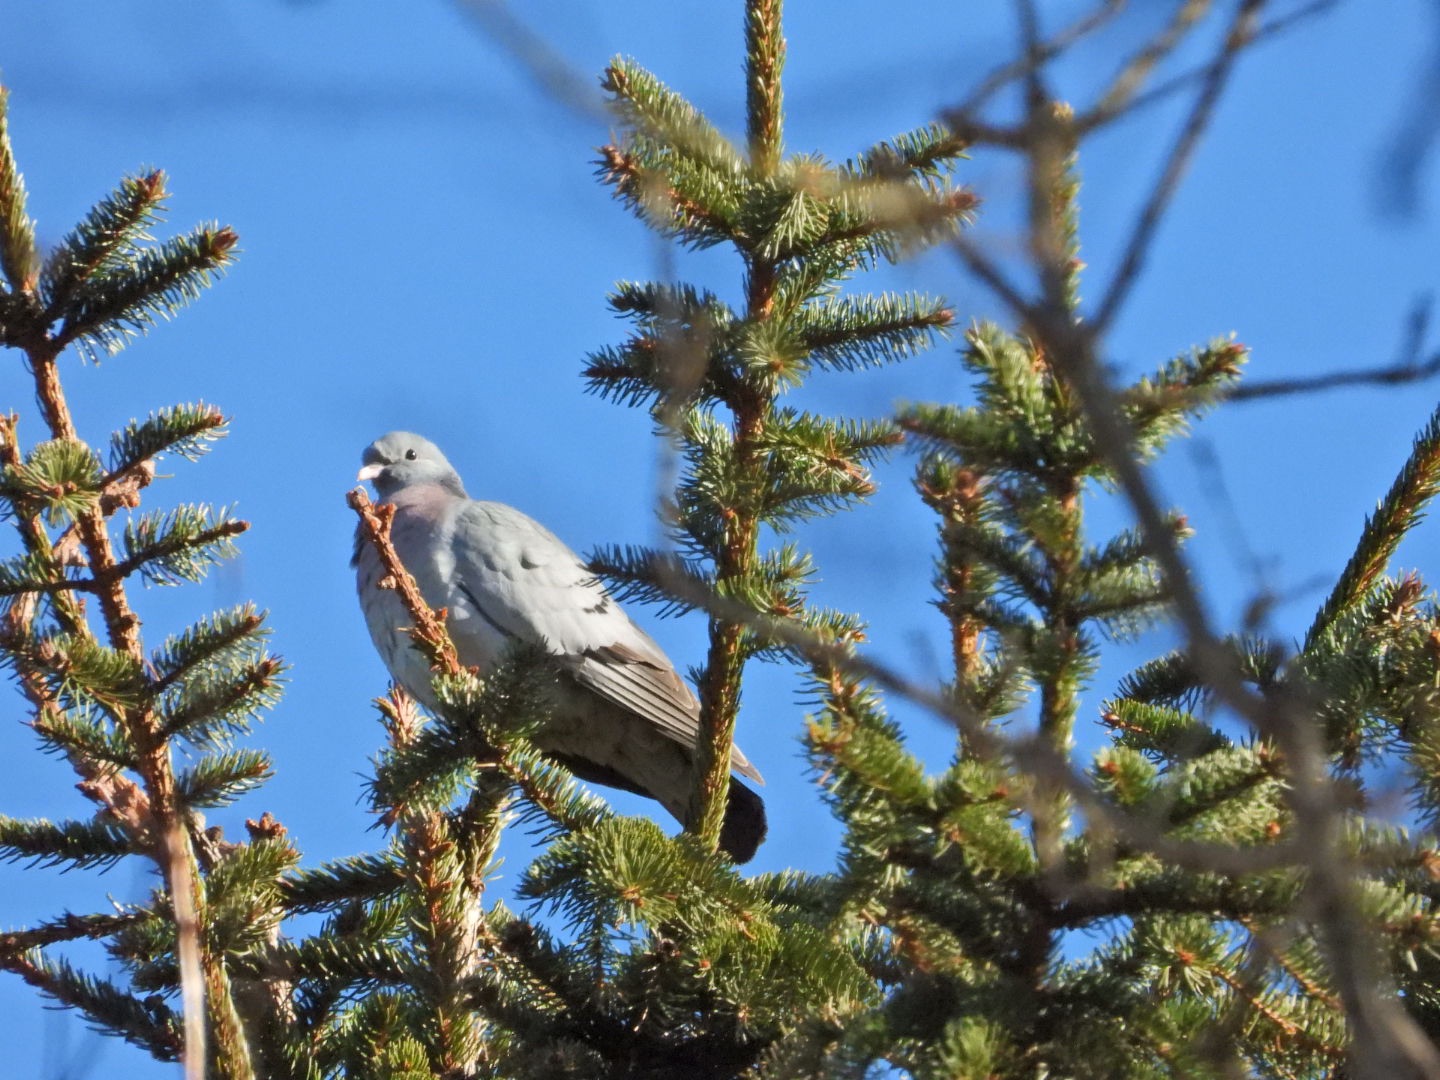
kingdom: Animalia
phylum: Chordata
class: Aves
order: Columbiformes
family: Columbidae
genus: Columba
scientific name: Columba oenas
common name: Huldue
